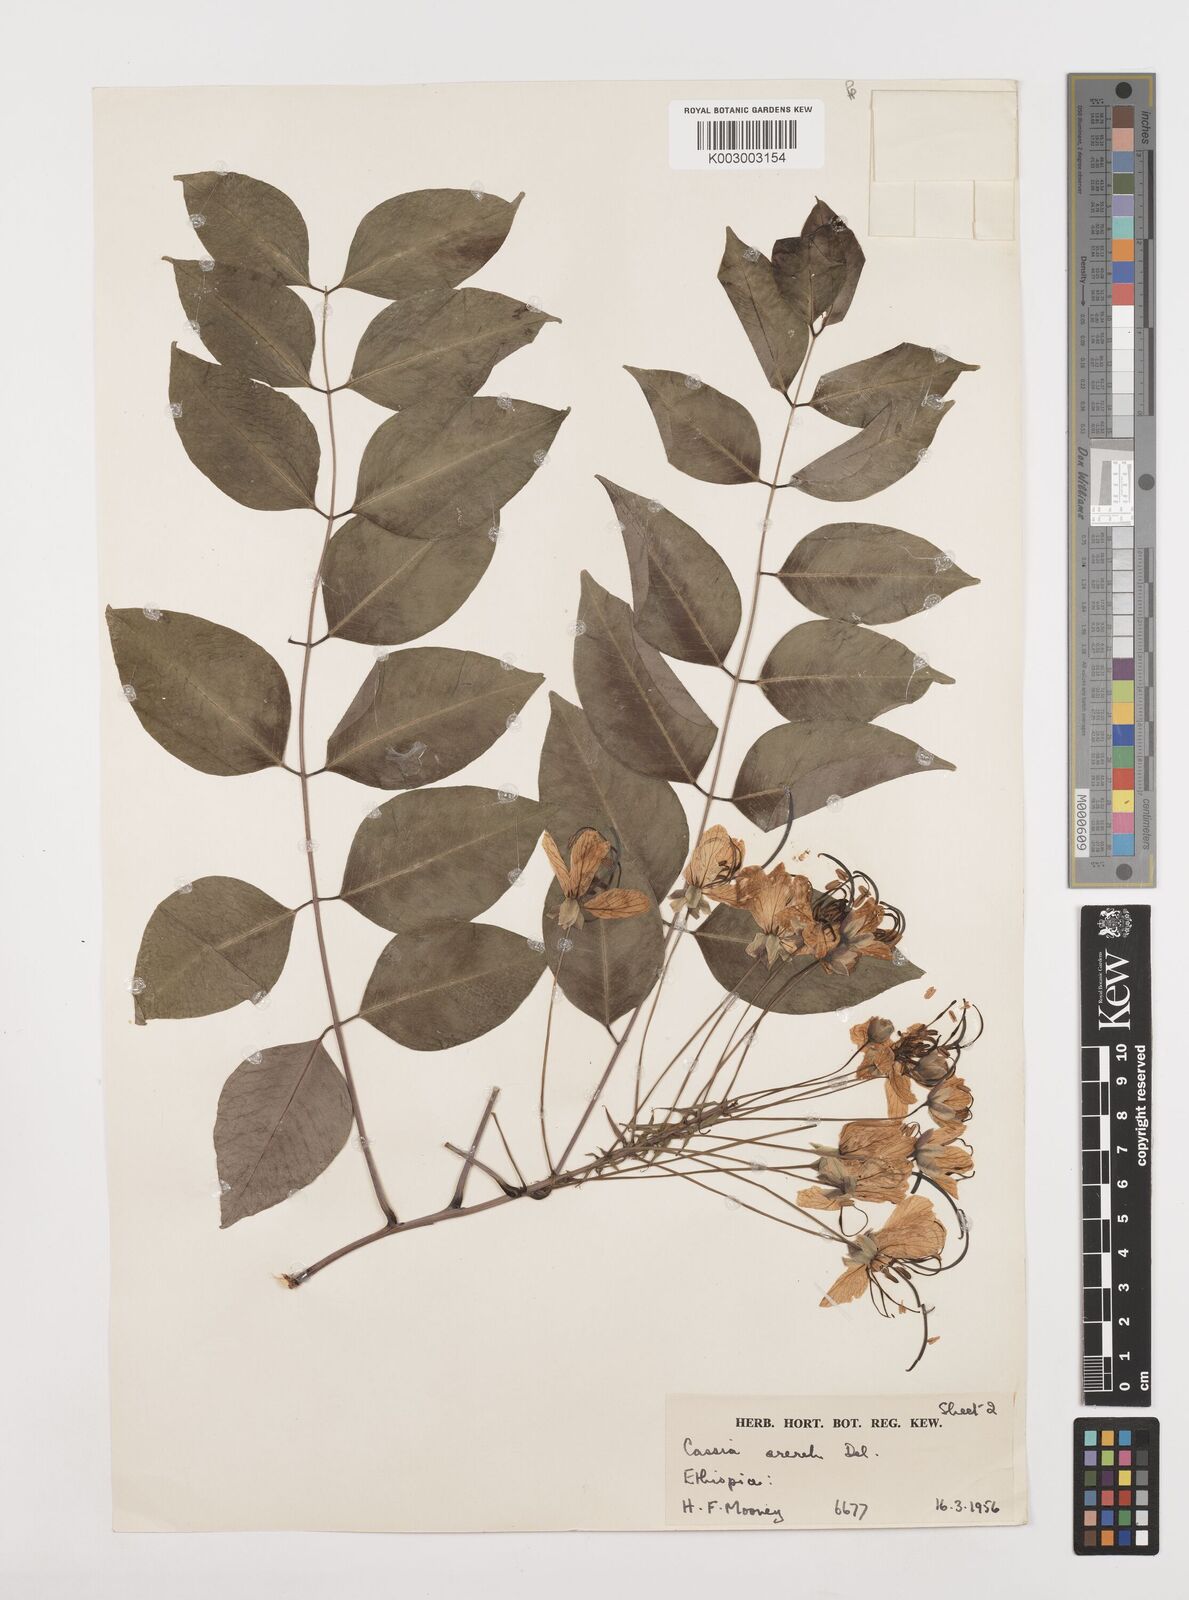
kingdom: Plantae
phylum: Tracheophyta
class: Magnoliopsida
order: Fabales
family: Fabaceae
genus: Cassia
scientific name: Cassia arereh
